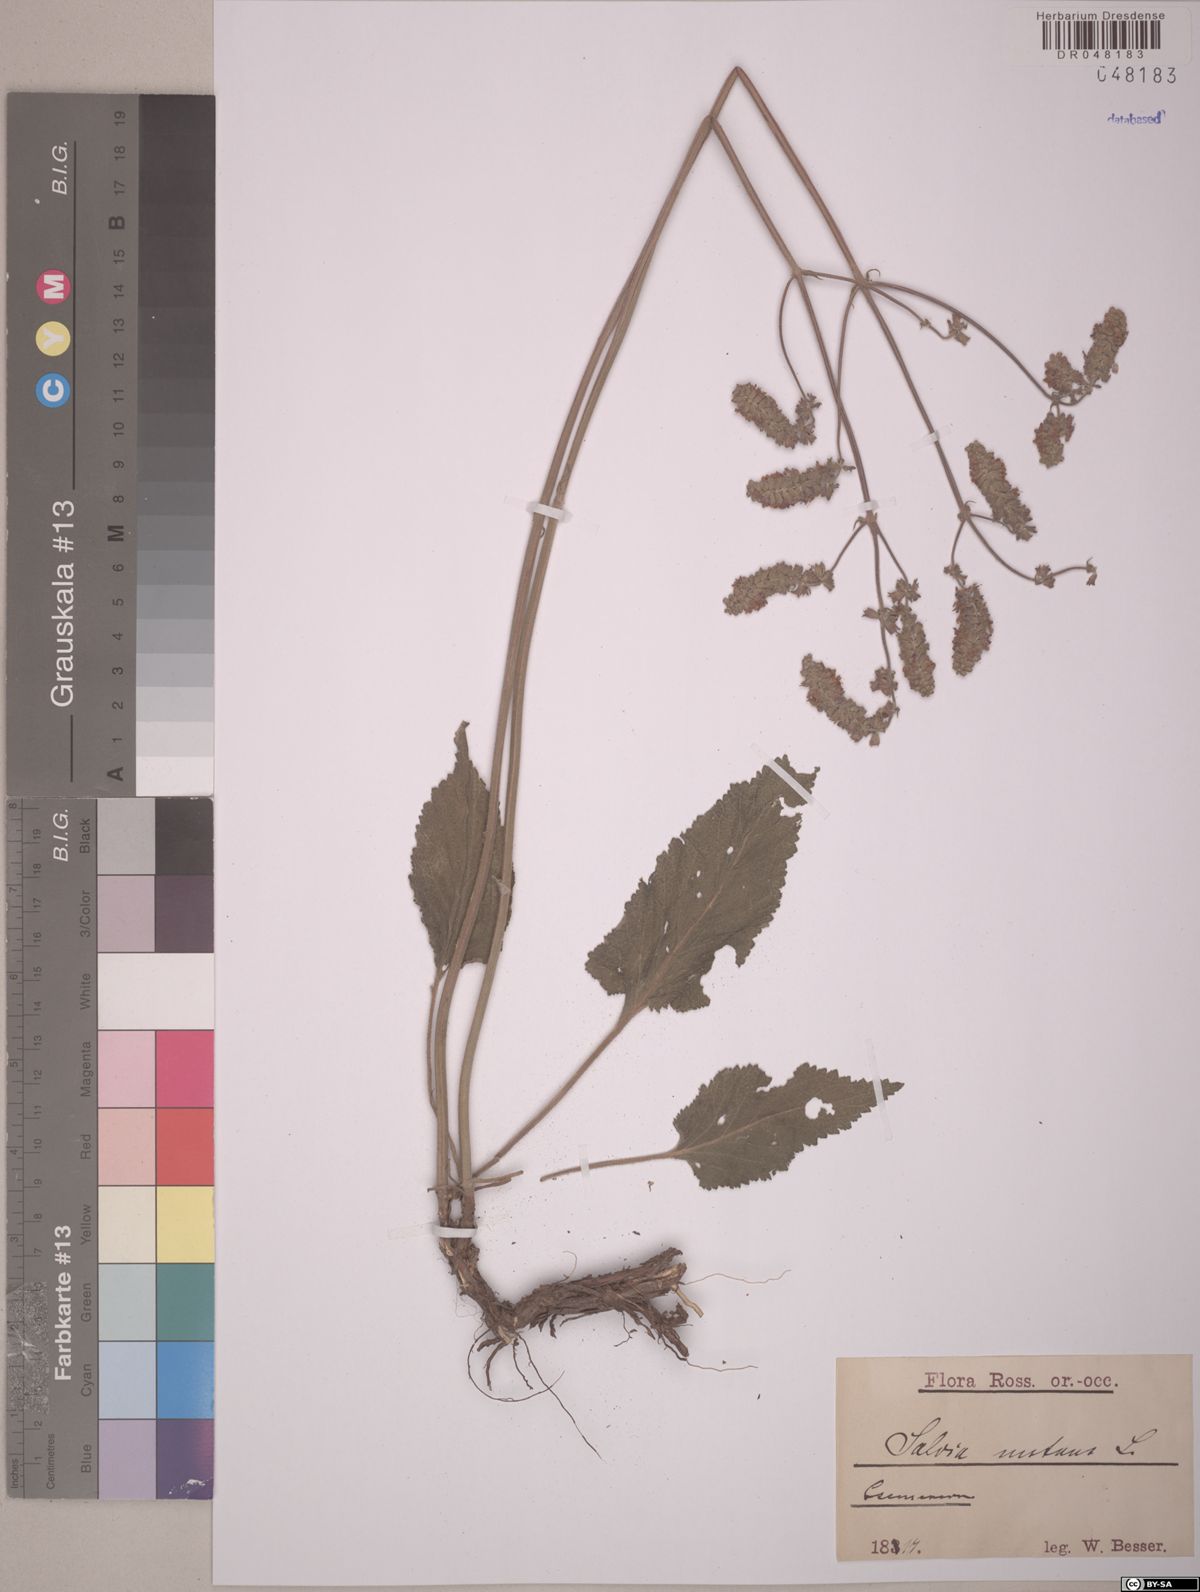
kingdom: Plantae
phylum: Tracheophyta
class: Magnoliopsida
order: Lamiales
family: Lamiaceae
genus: Salvia
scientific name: Salvia nutans
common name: Nodding sage
